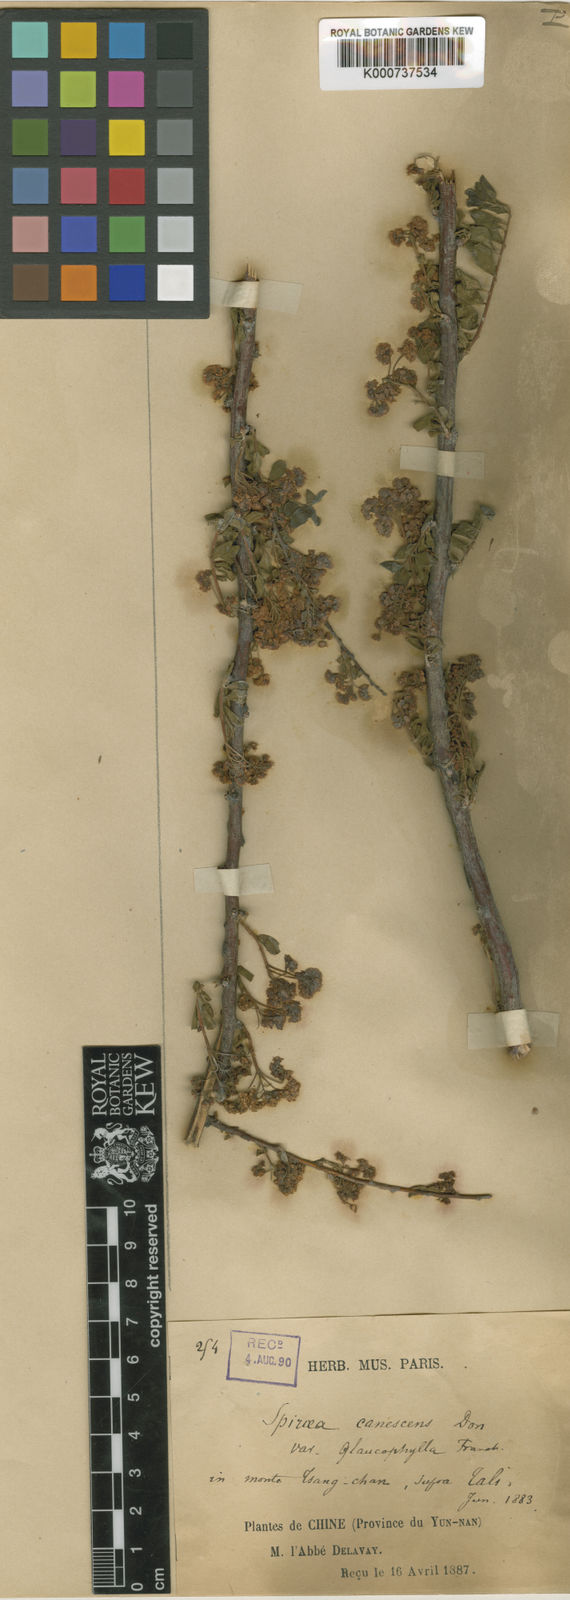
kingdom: Plantae
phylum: Tracheophyta
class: Magnoliopsida
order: Rosales
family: Rosaceae
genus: Spiraea
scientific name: Spiraea
